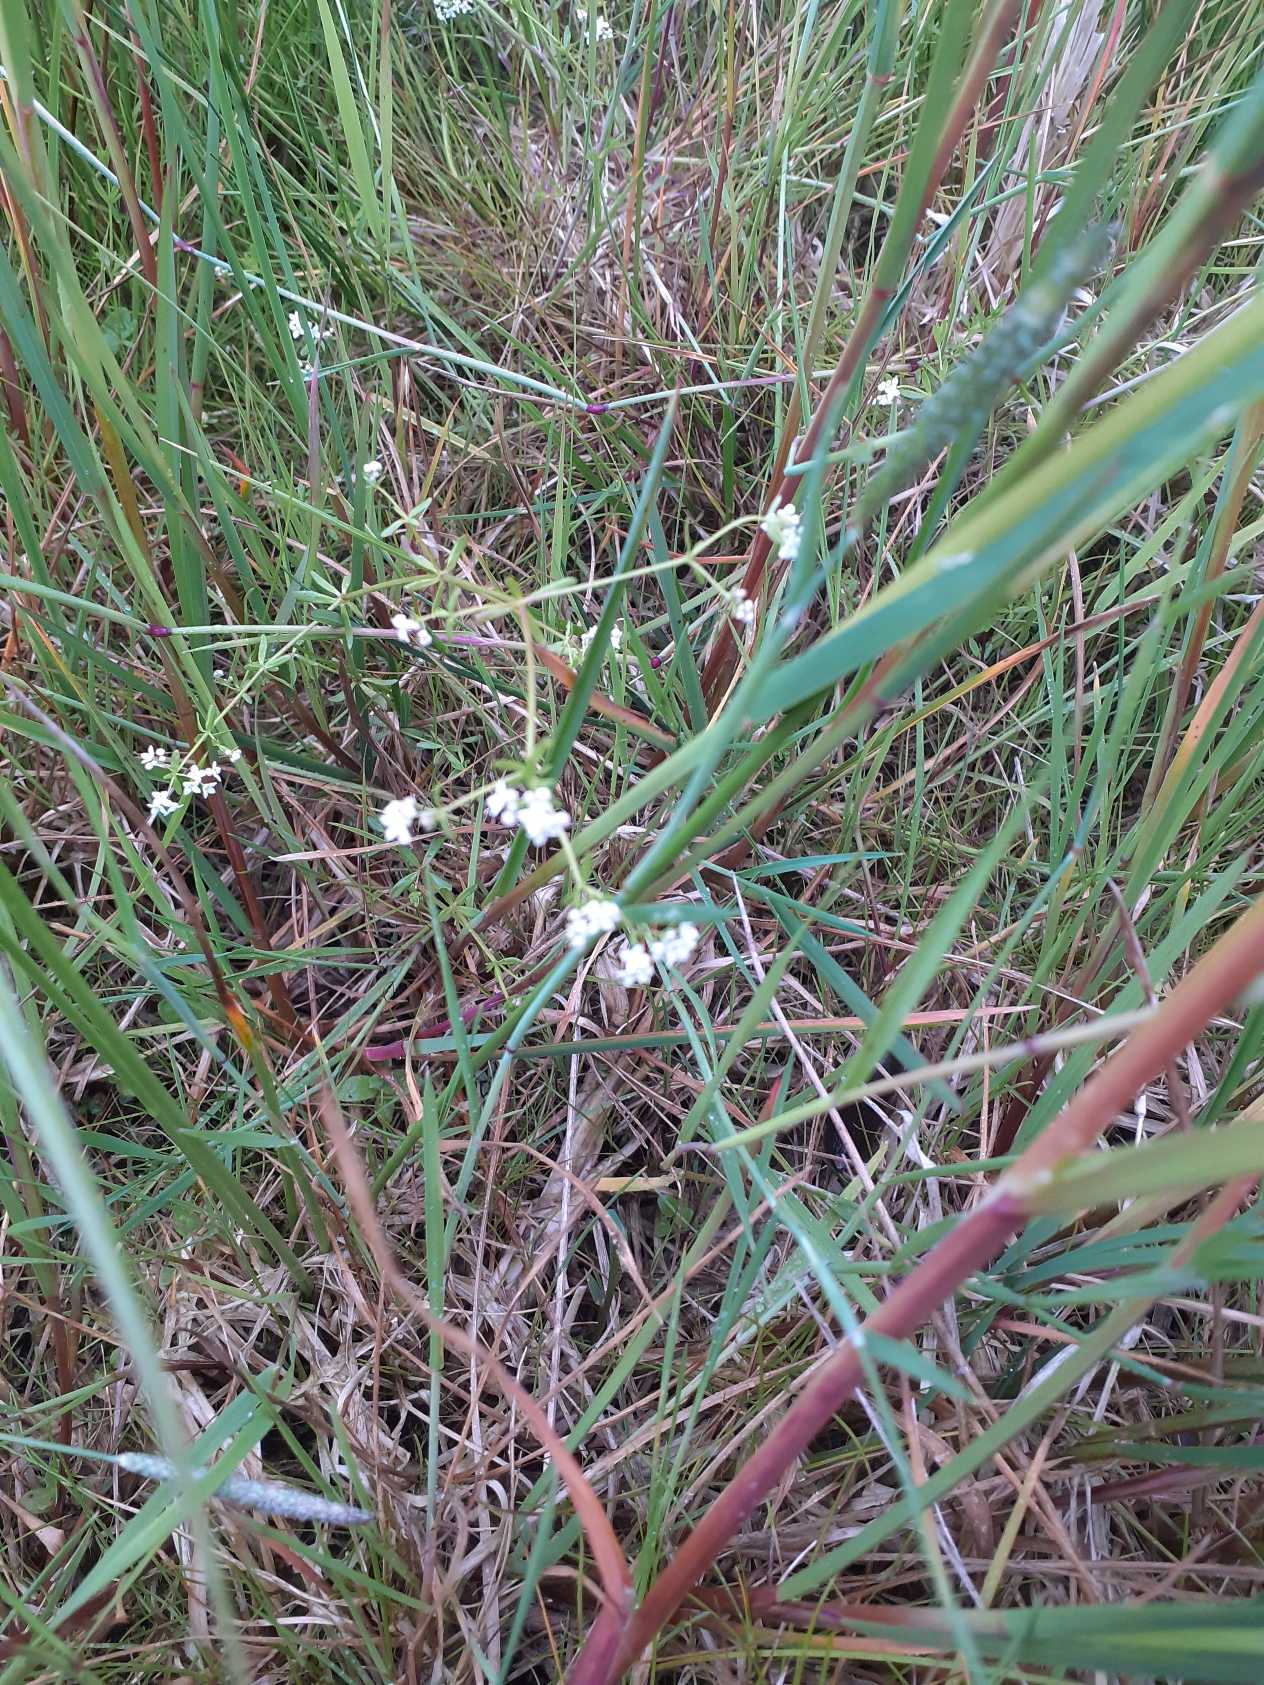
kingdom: Plantae
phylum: Tracheophyta
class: Magnoliopsida
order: Gentianales
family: Rubiaceae
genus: Galium
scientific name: Galium palustre
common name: Kær-snerre
